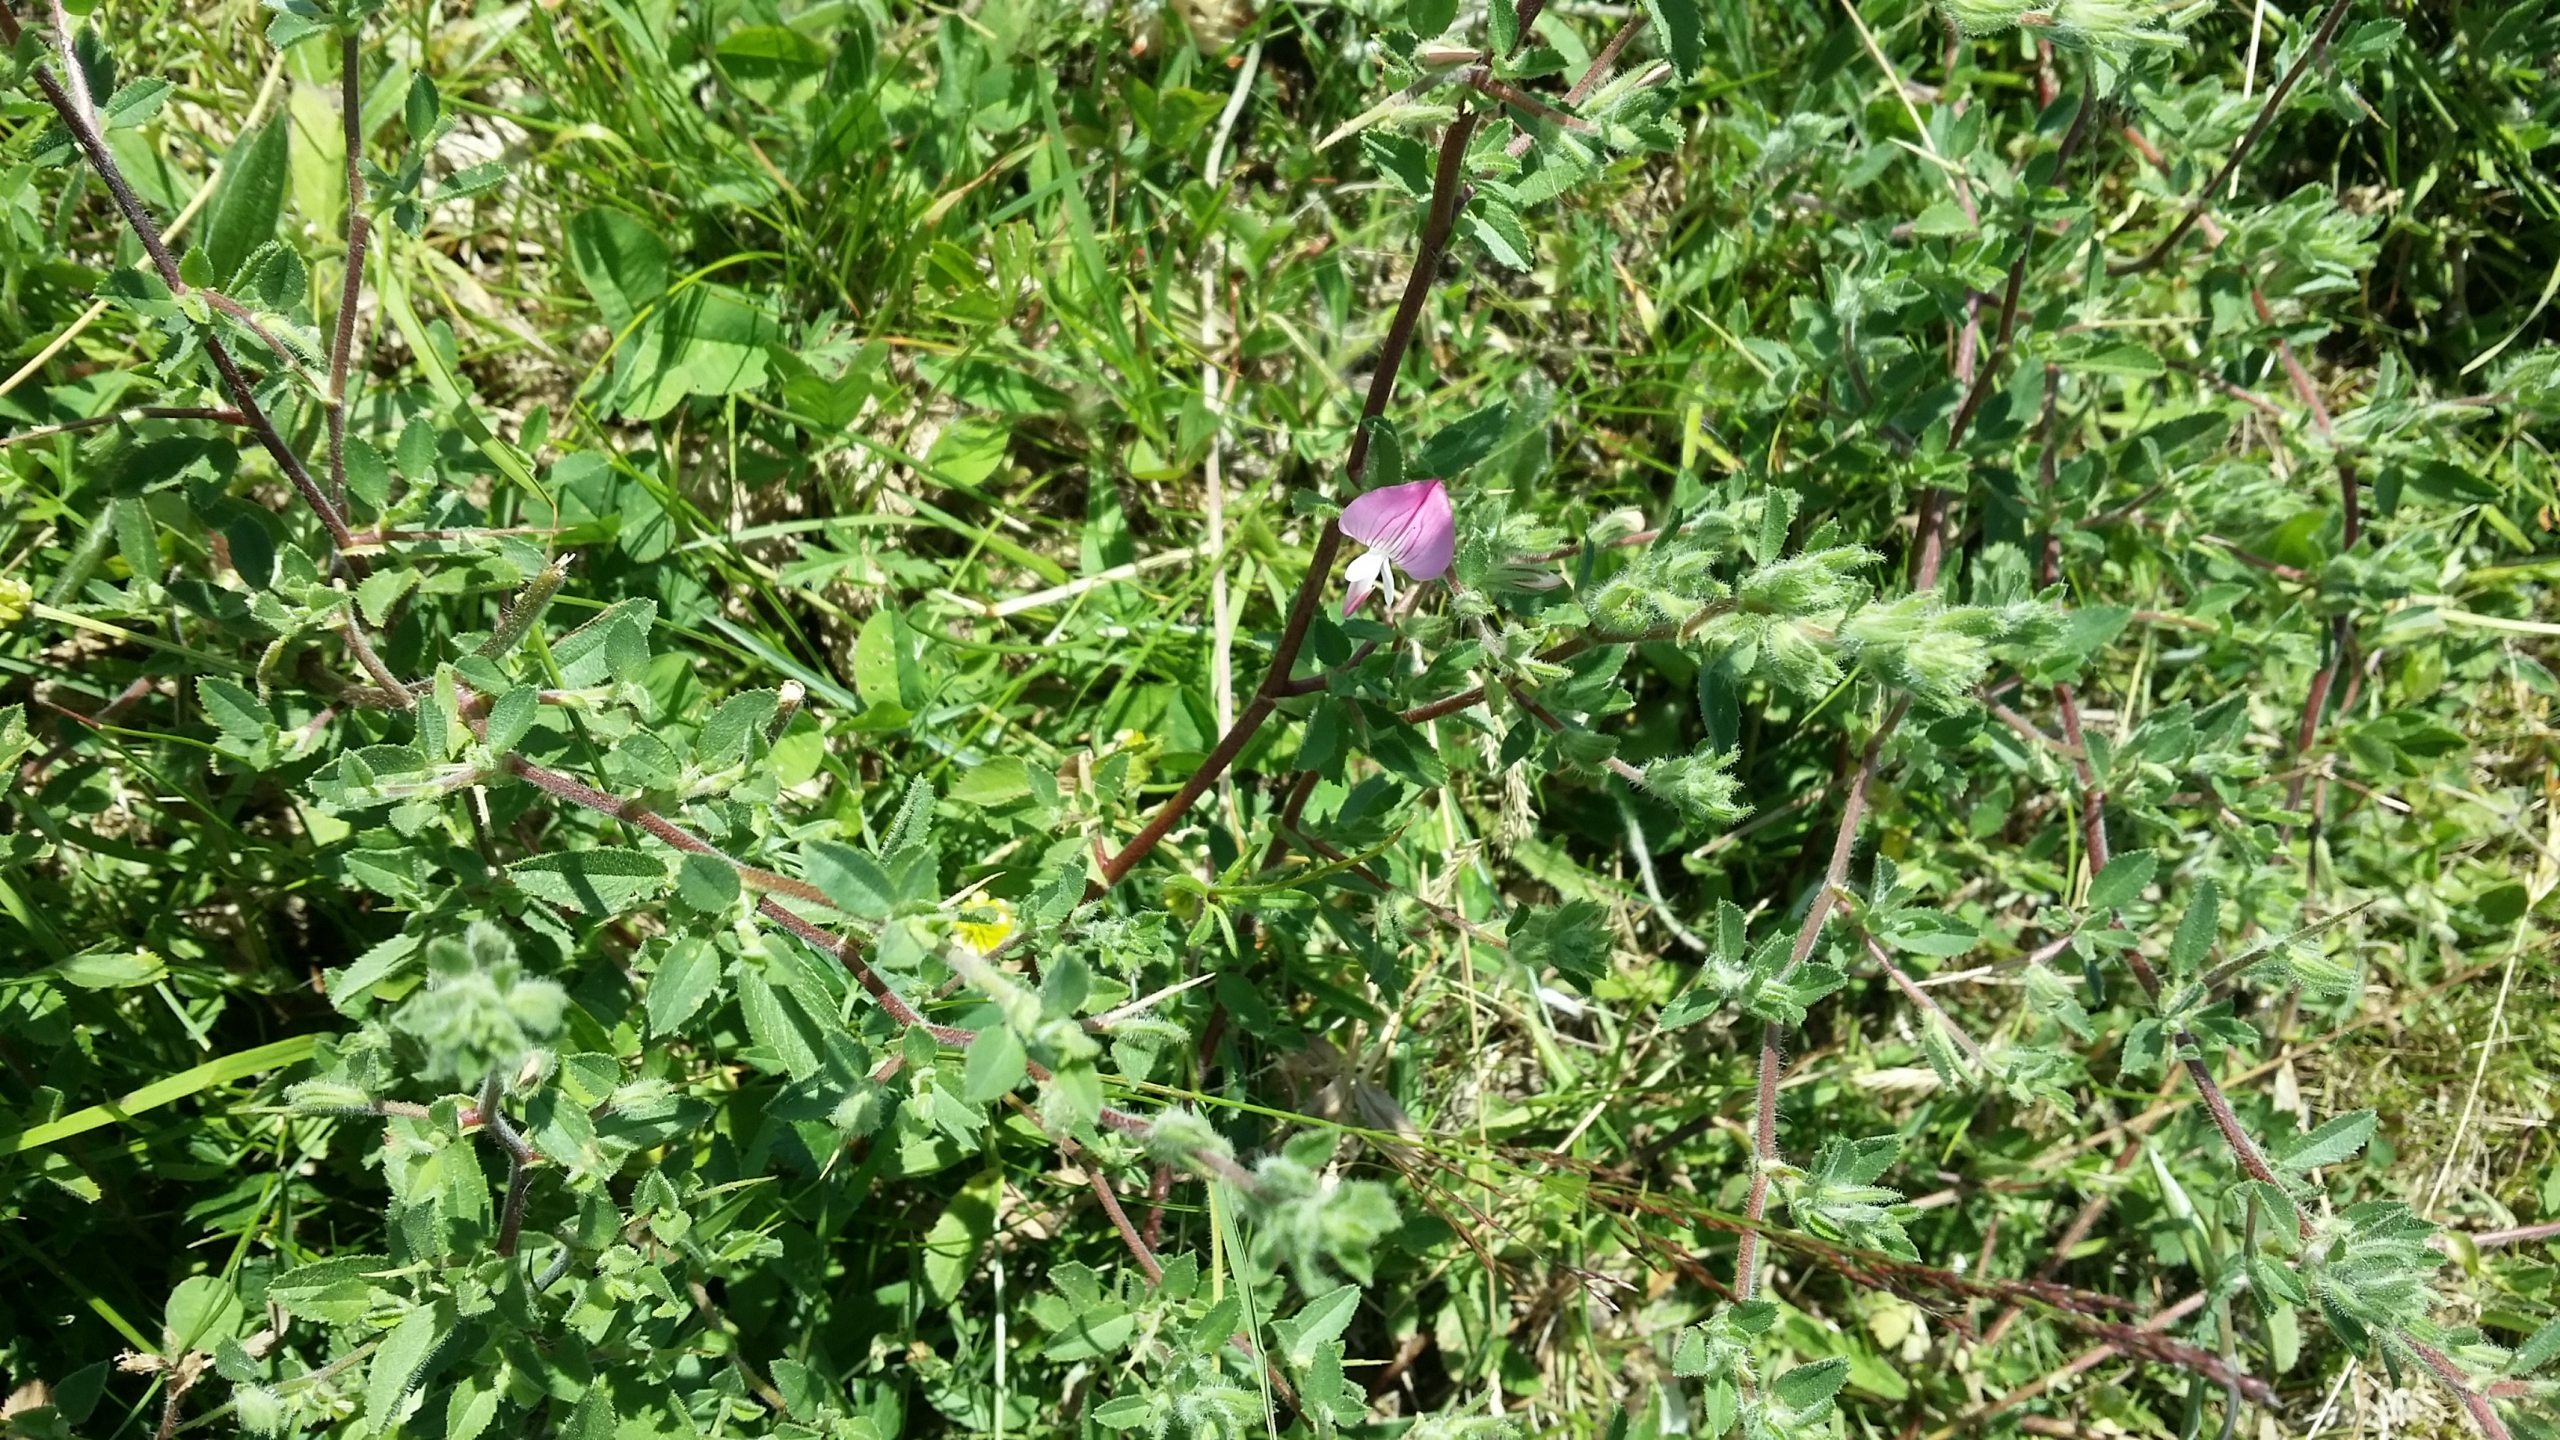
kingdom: Plantae
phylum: Tracheophyta
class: Magnoliopsida
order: Fabales
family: Fabaceae
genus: Ononis
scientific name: Ononis spinosa
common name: Mark-krageklo
